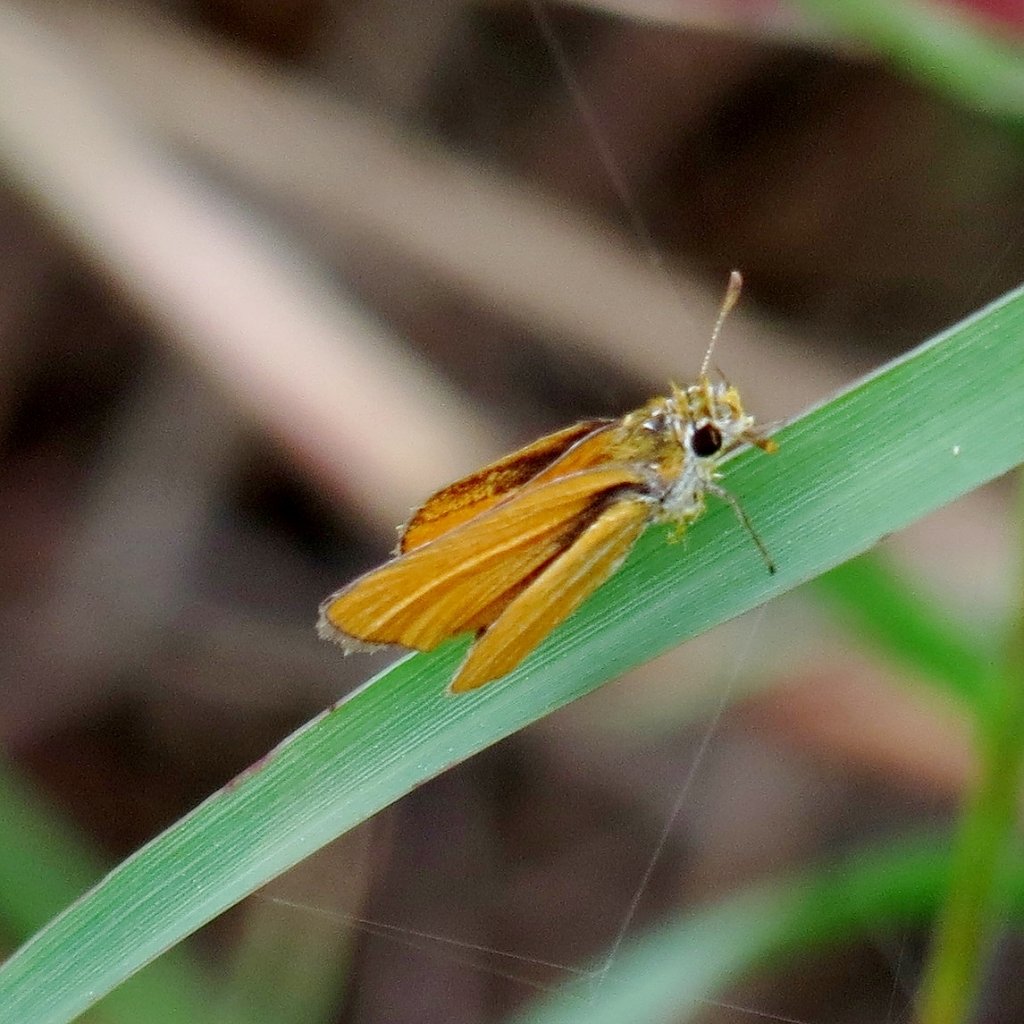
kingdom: Animalia
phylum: Arthropoda
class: Insecta
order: Lepidoptera
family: Hesperiidae
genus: Copaeodes
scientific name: Copaeodes minima
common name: Southern Skipperling
